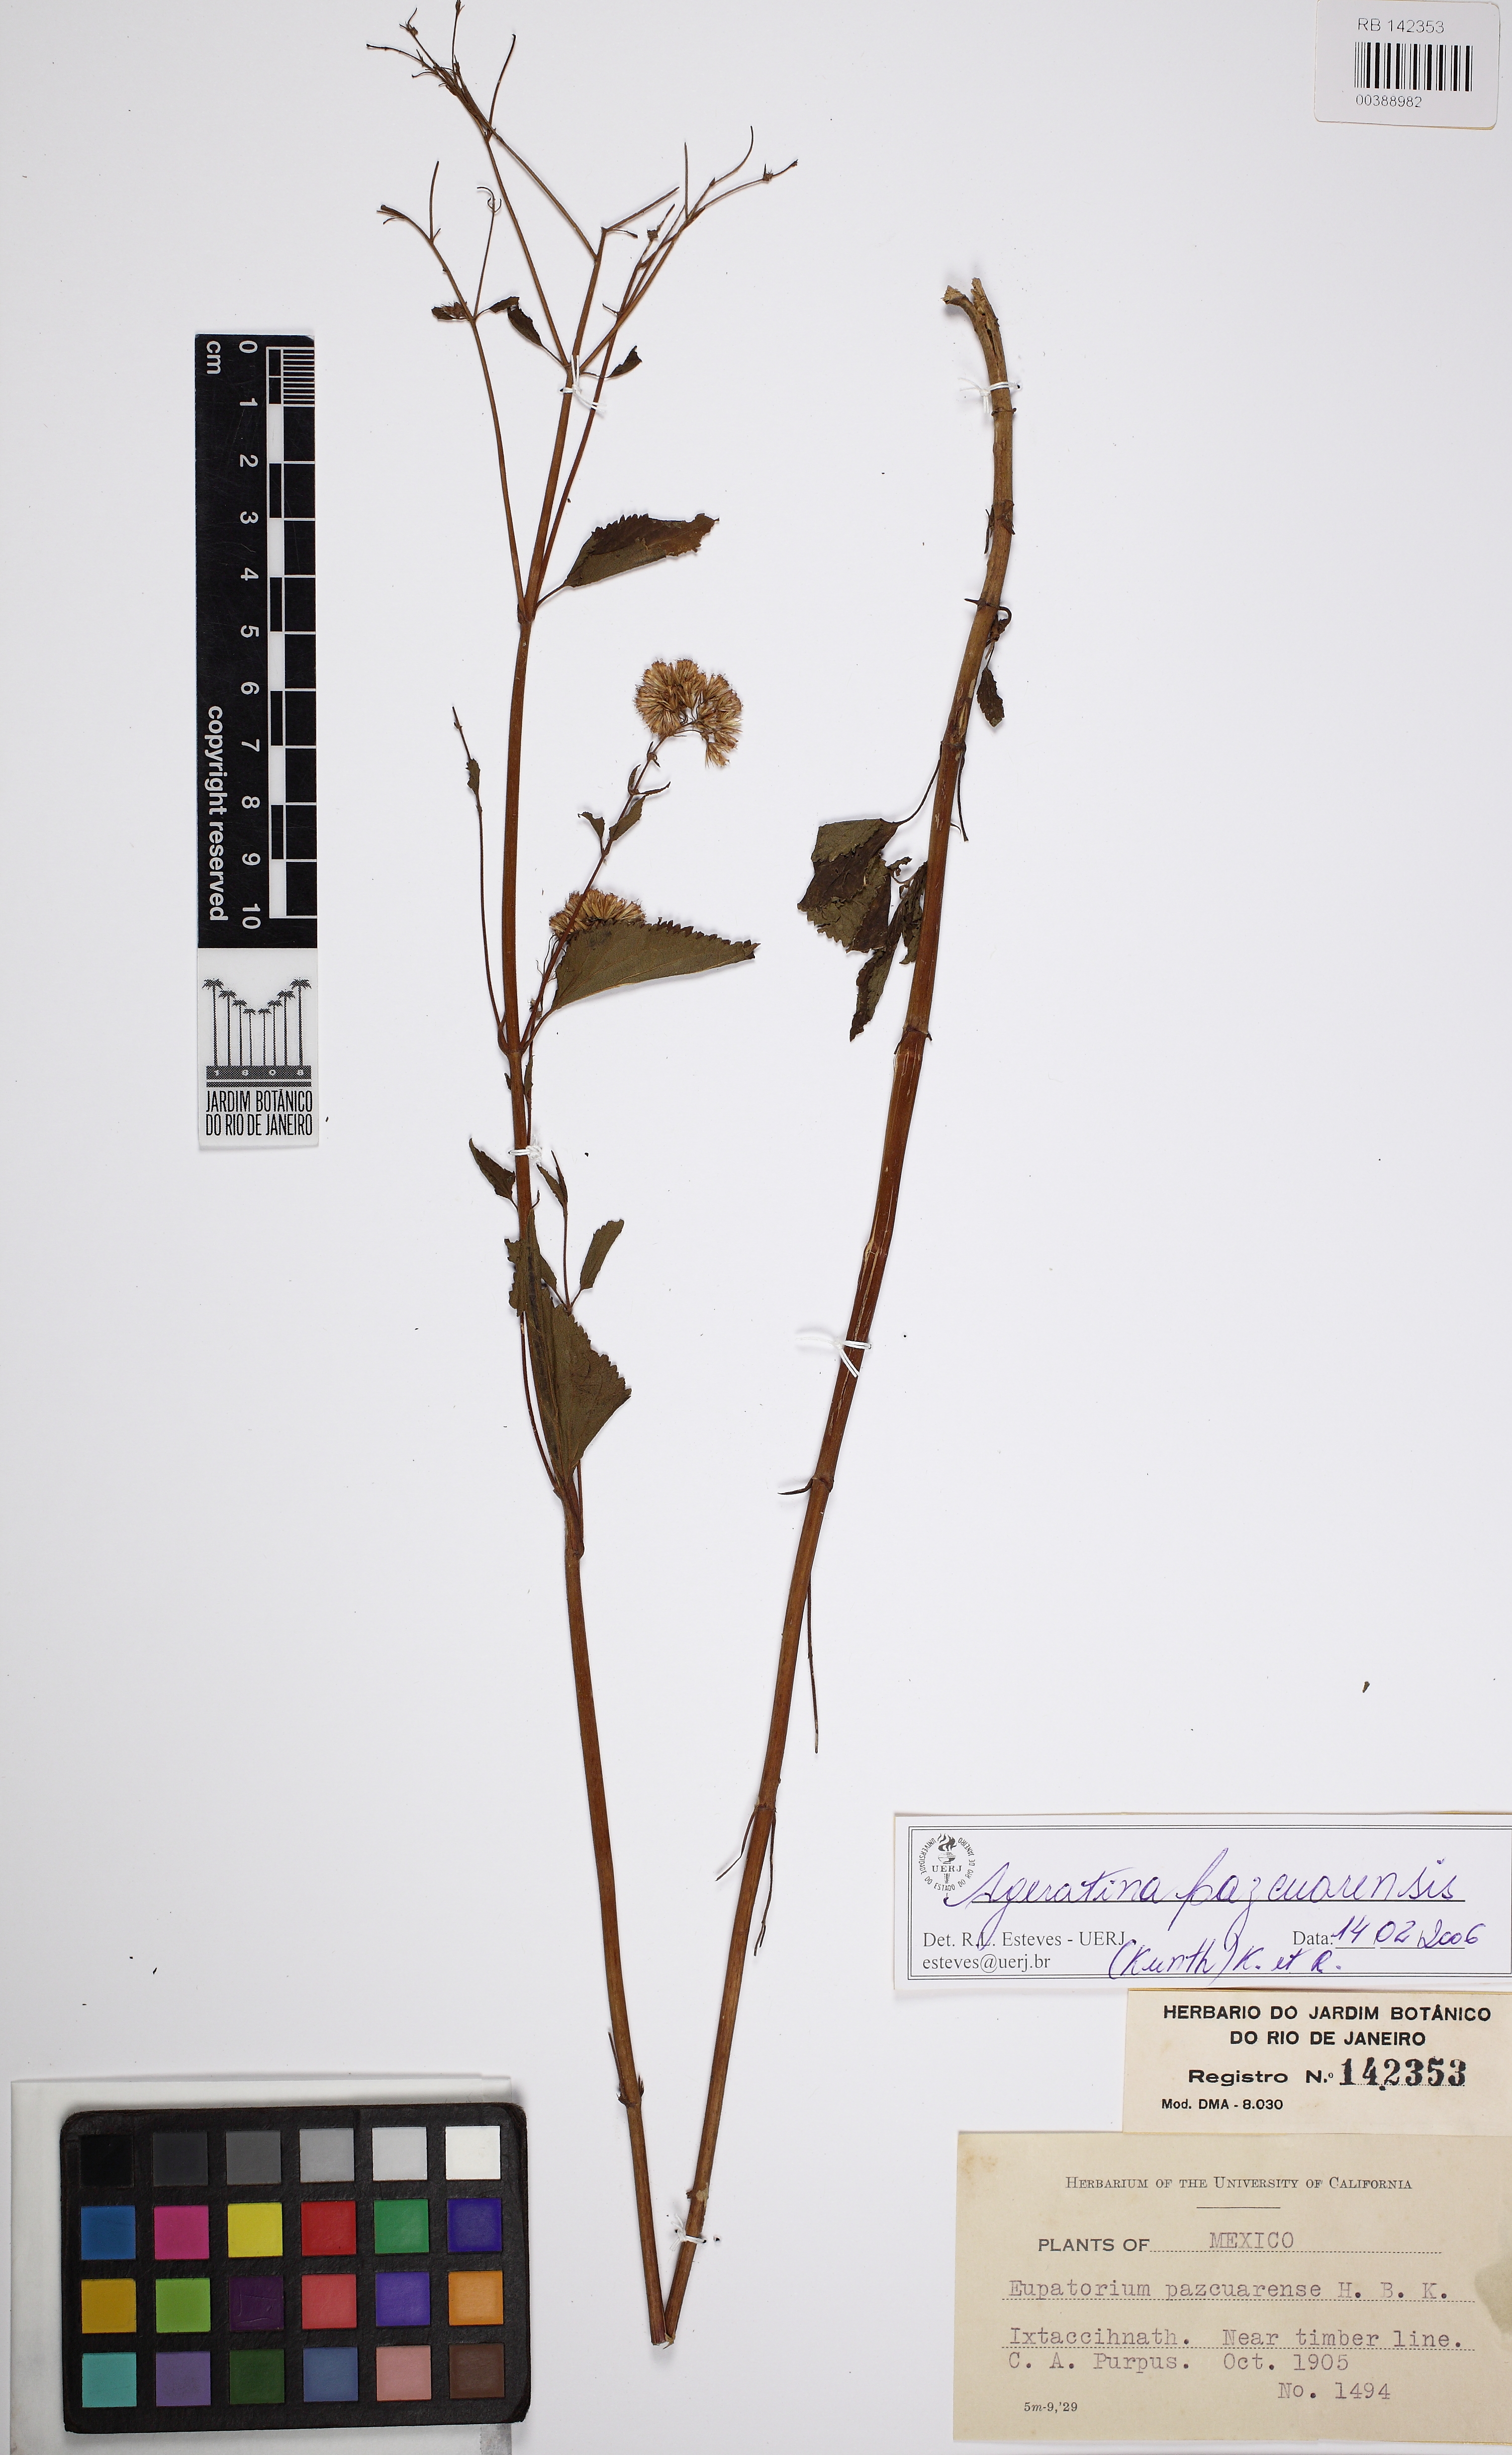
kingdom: Plantae
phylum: Tracheophyta
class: Magnoliopsida
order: Asterales
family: Asteraceae
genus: Ageratina
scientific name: Ageratina pazcuarensis
